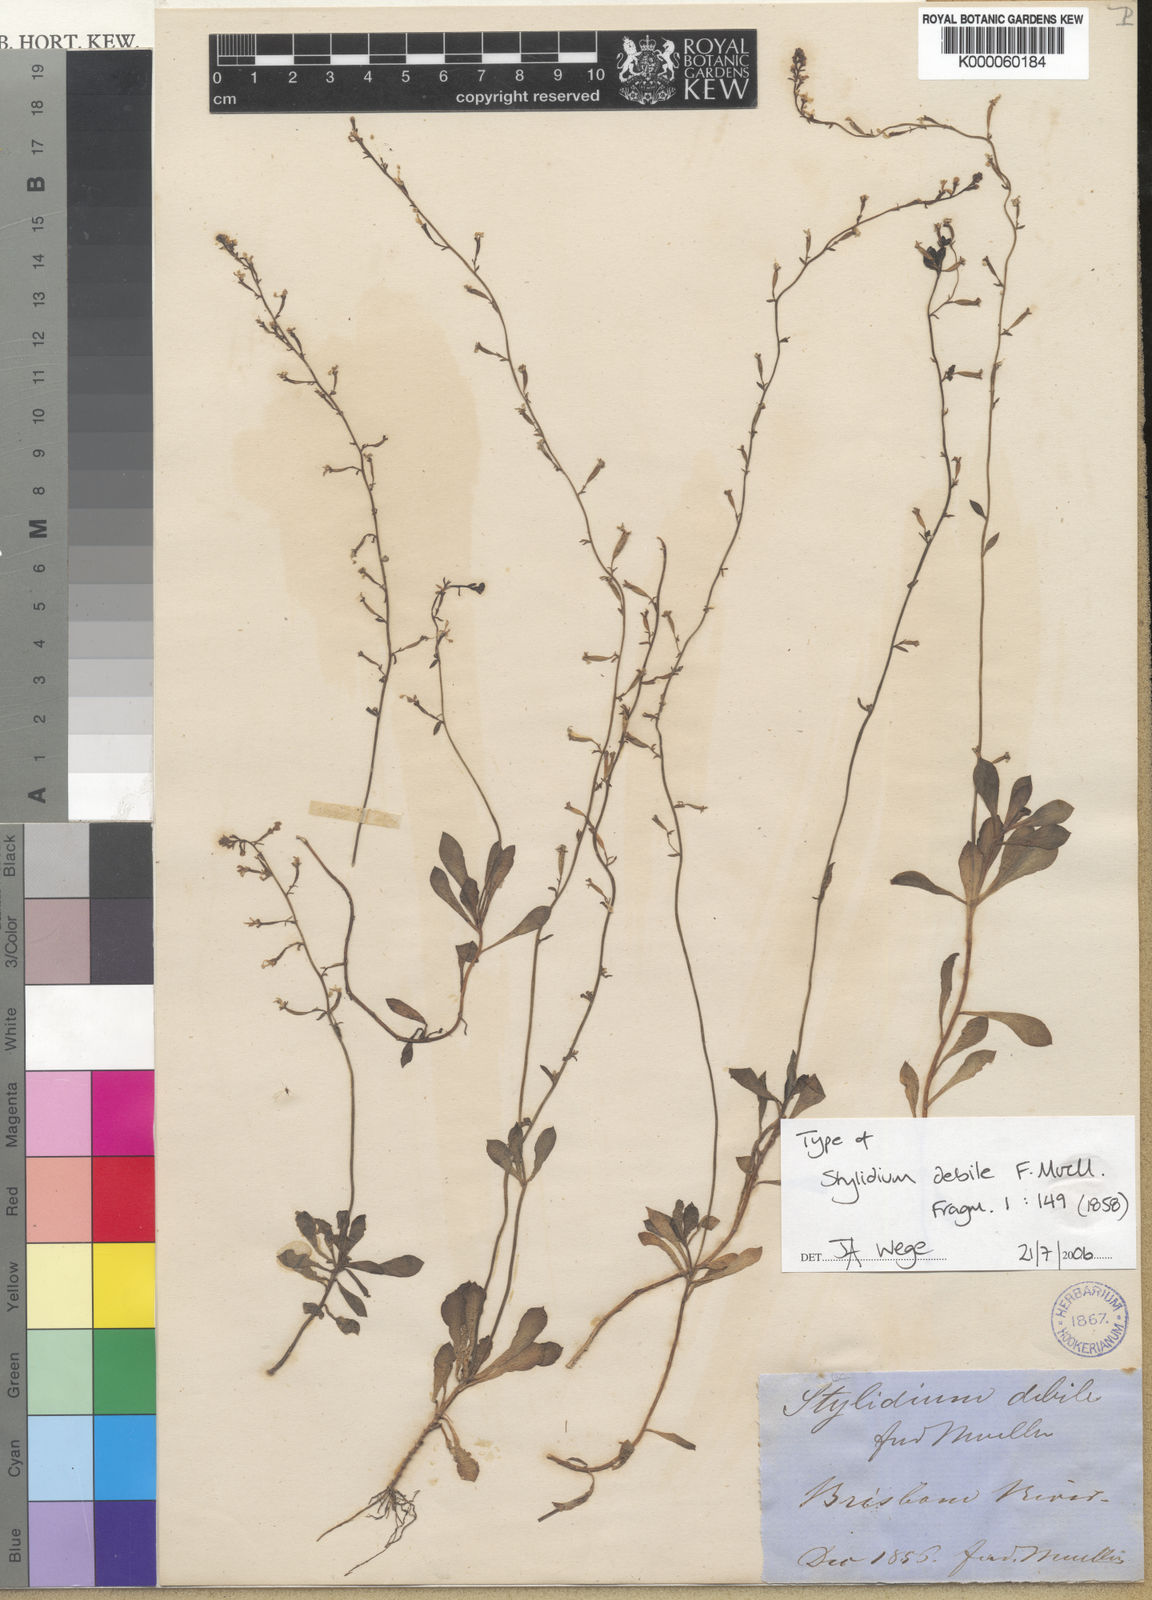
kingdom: Plantae
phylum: Tracheophyta
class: Magnoliopsida
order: Asterales
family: Stylidiaceae
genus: Stylidium
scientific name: Stylidium debile
